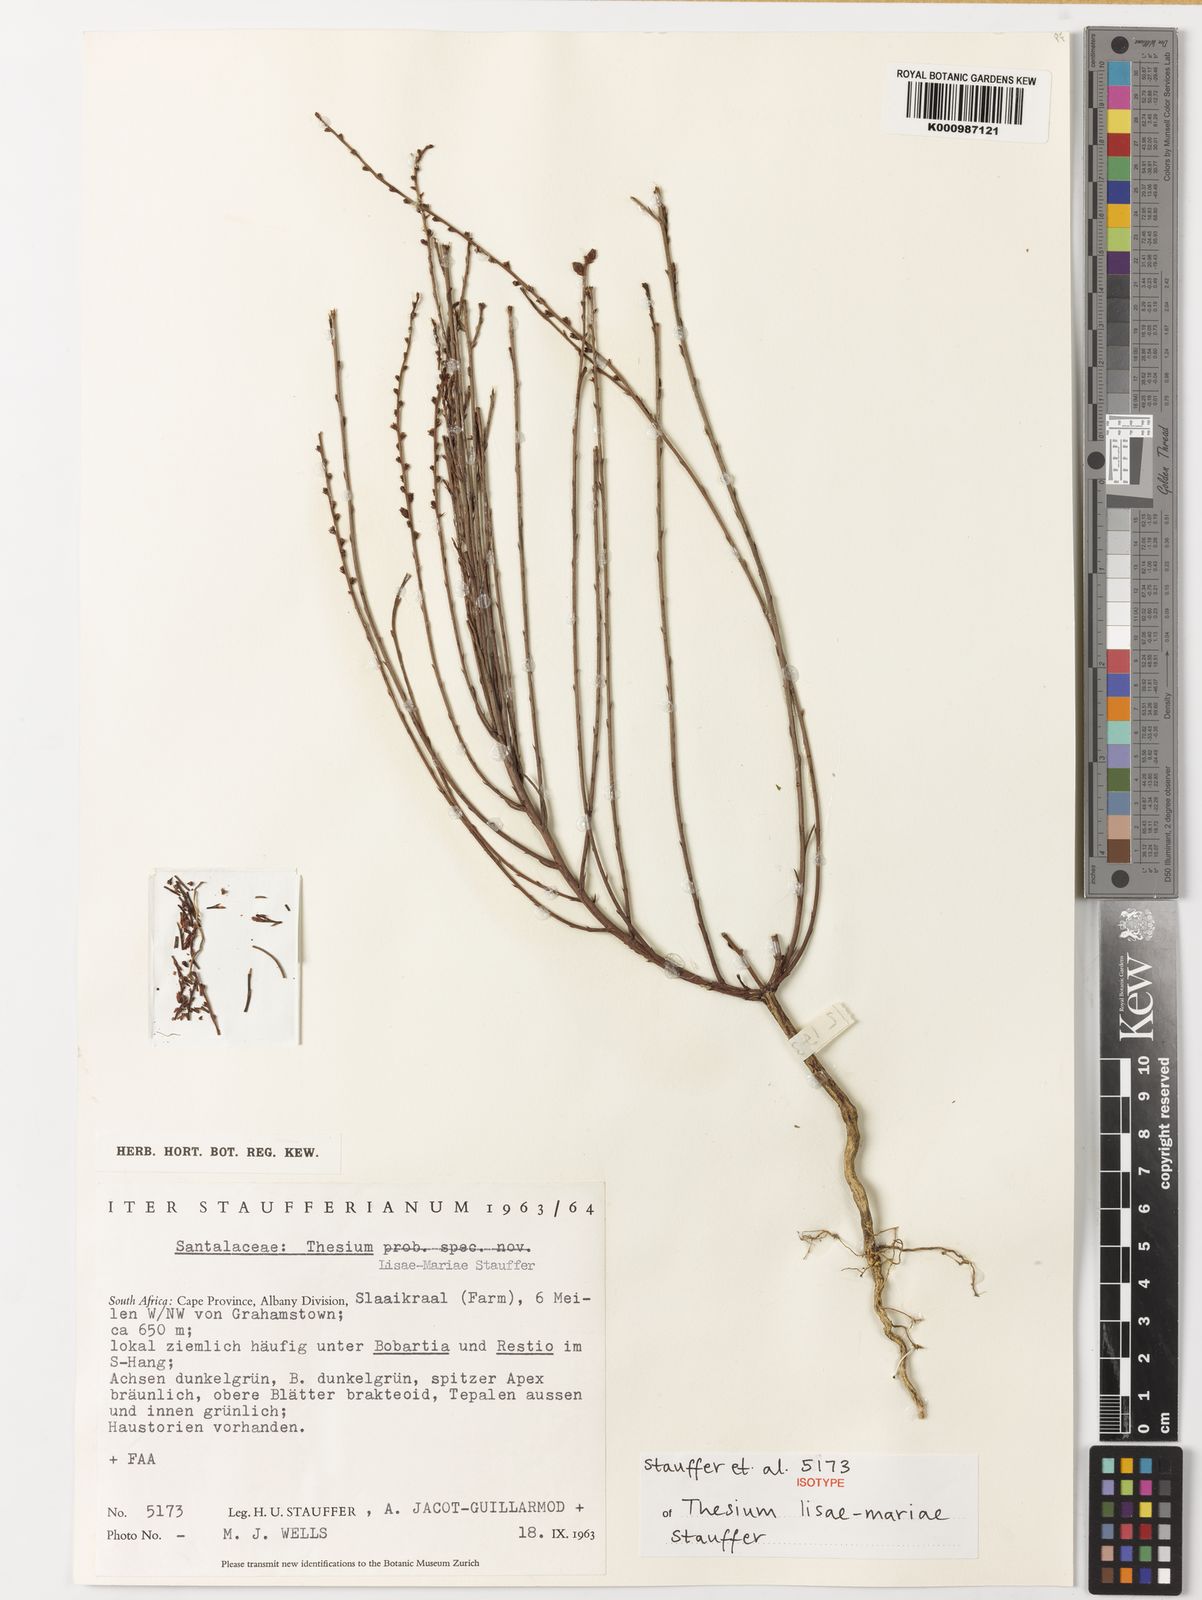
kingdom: Plantae
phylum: Tracheophyta
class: Magnoliopsida
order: Santalales
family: Thesiaceae
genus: Thesium
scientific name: Thesium lisae-mariae
